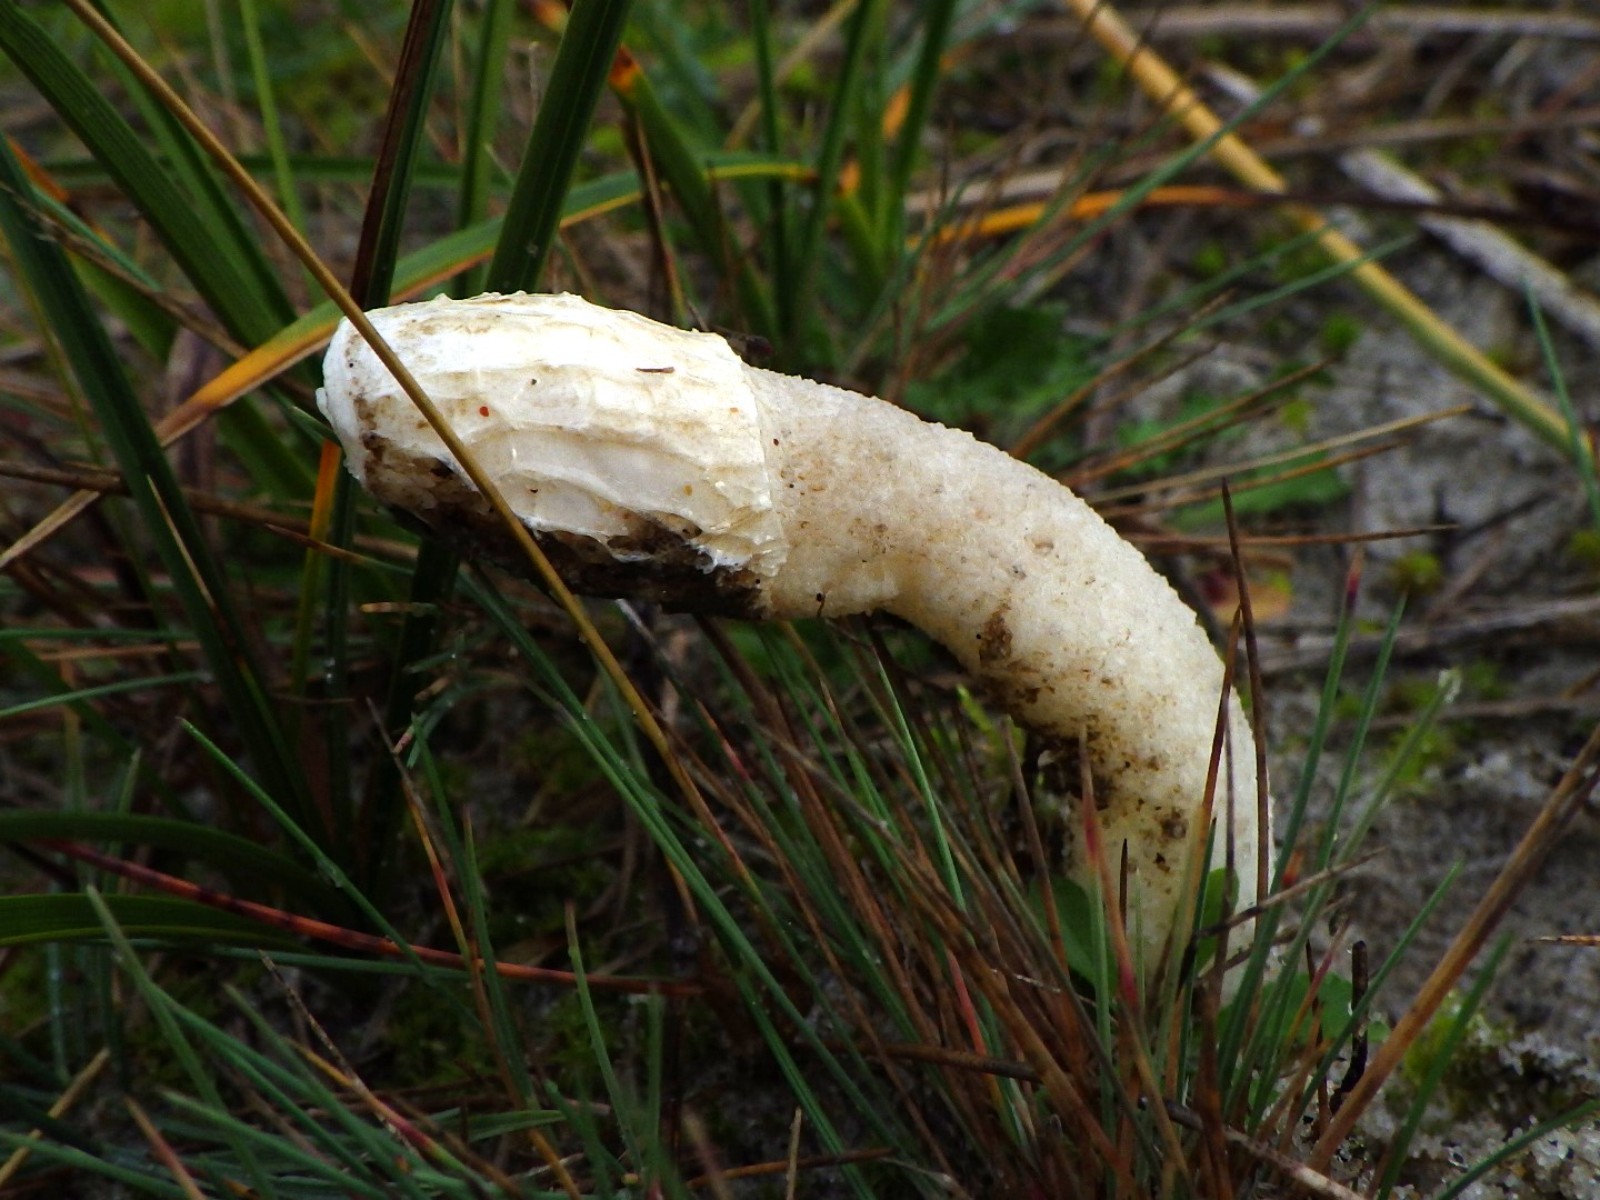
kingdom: Fungi
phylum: Basidiomycota
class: Agaricomycetes
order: Phallales
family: Phallaceae
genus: Phallus
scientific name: Phallus hadriani
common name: sand-stinksvamp
